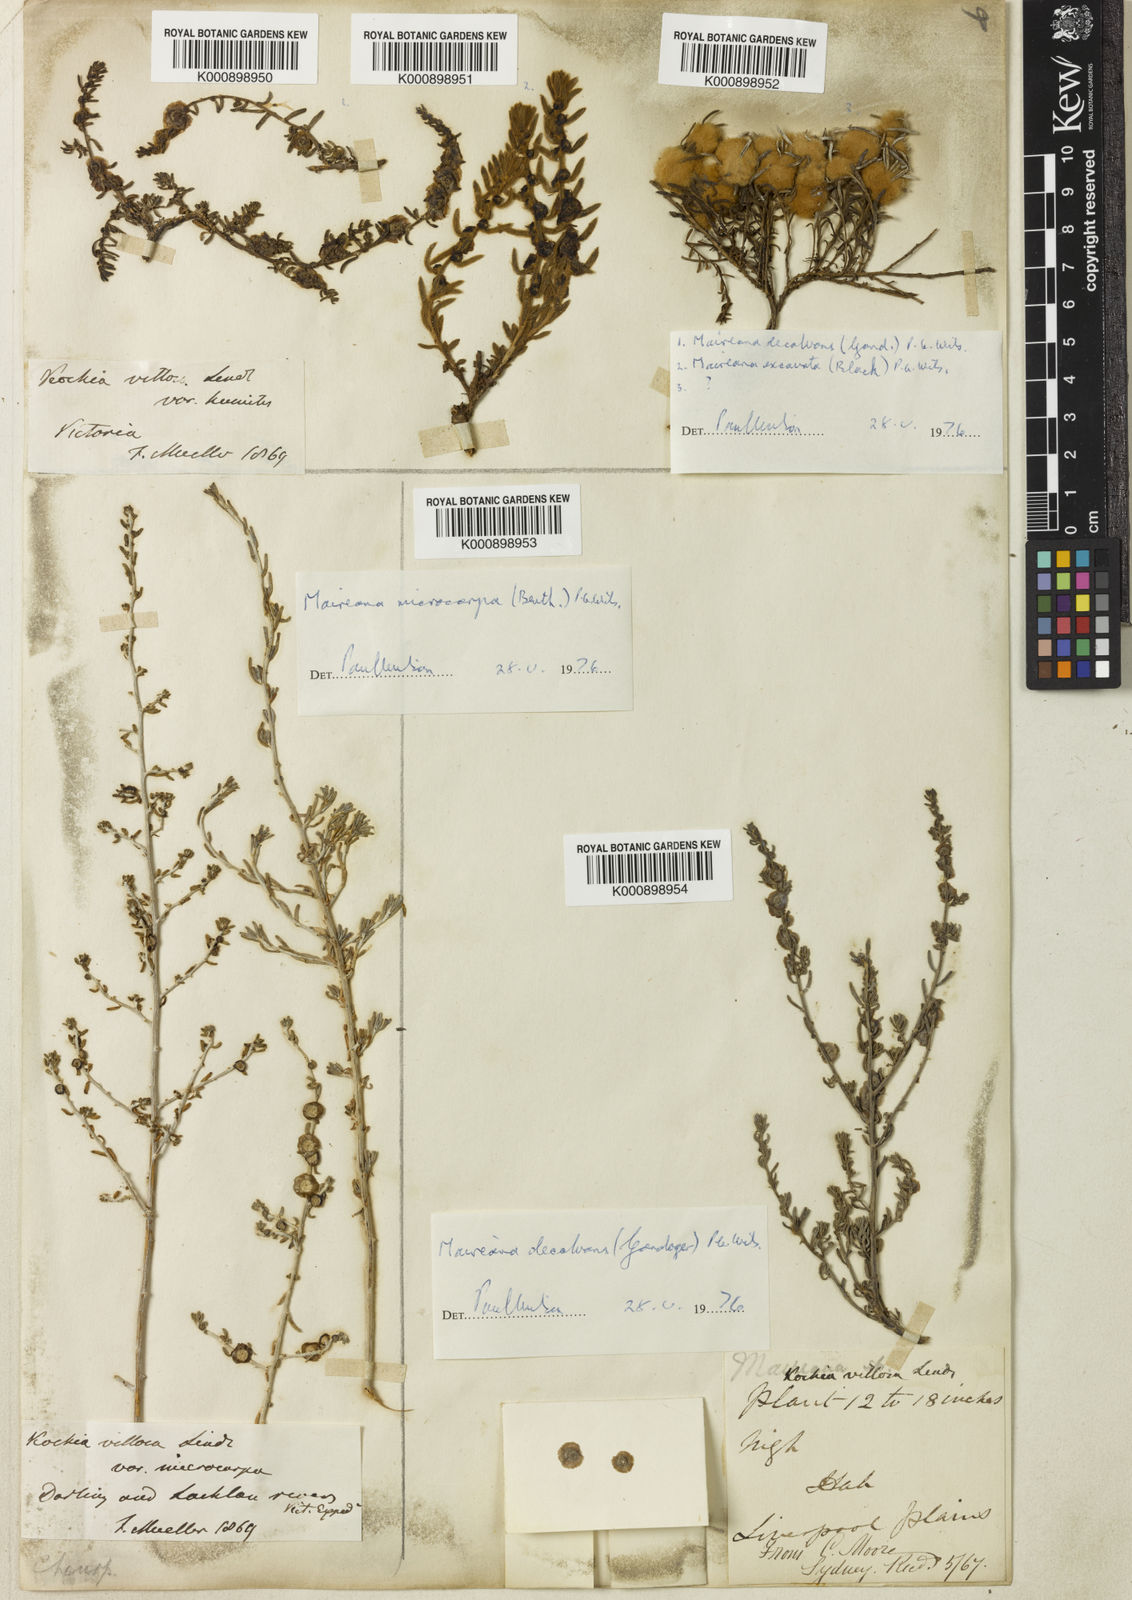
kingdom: Plantae
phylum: Tracheophyta
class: Magnoliopsida
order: Caryophyllales
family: Amaranthaceae
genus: Maireana
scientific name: Maireana villosa
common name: Silky bluebush
